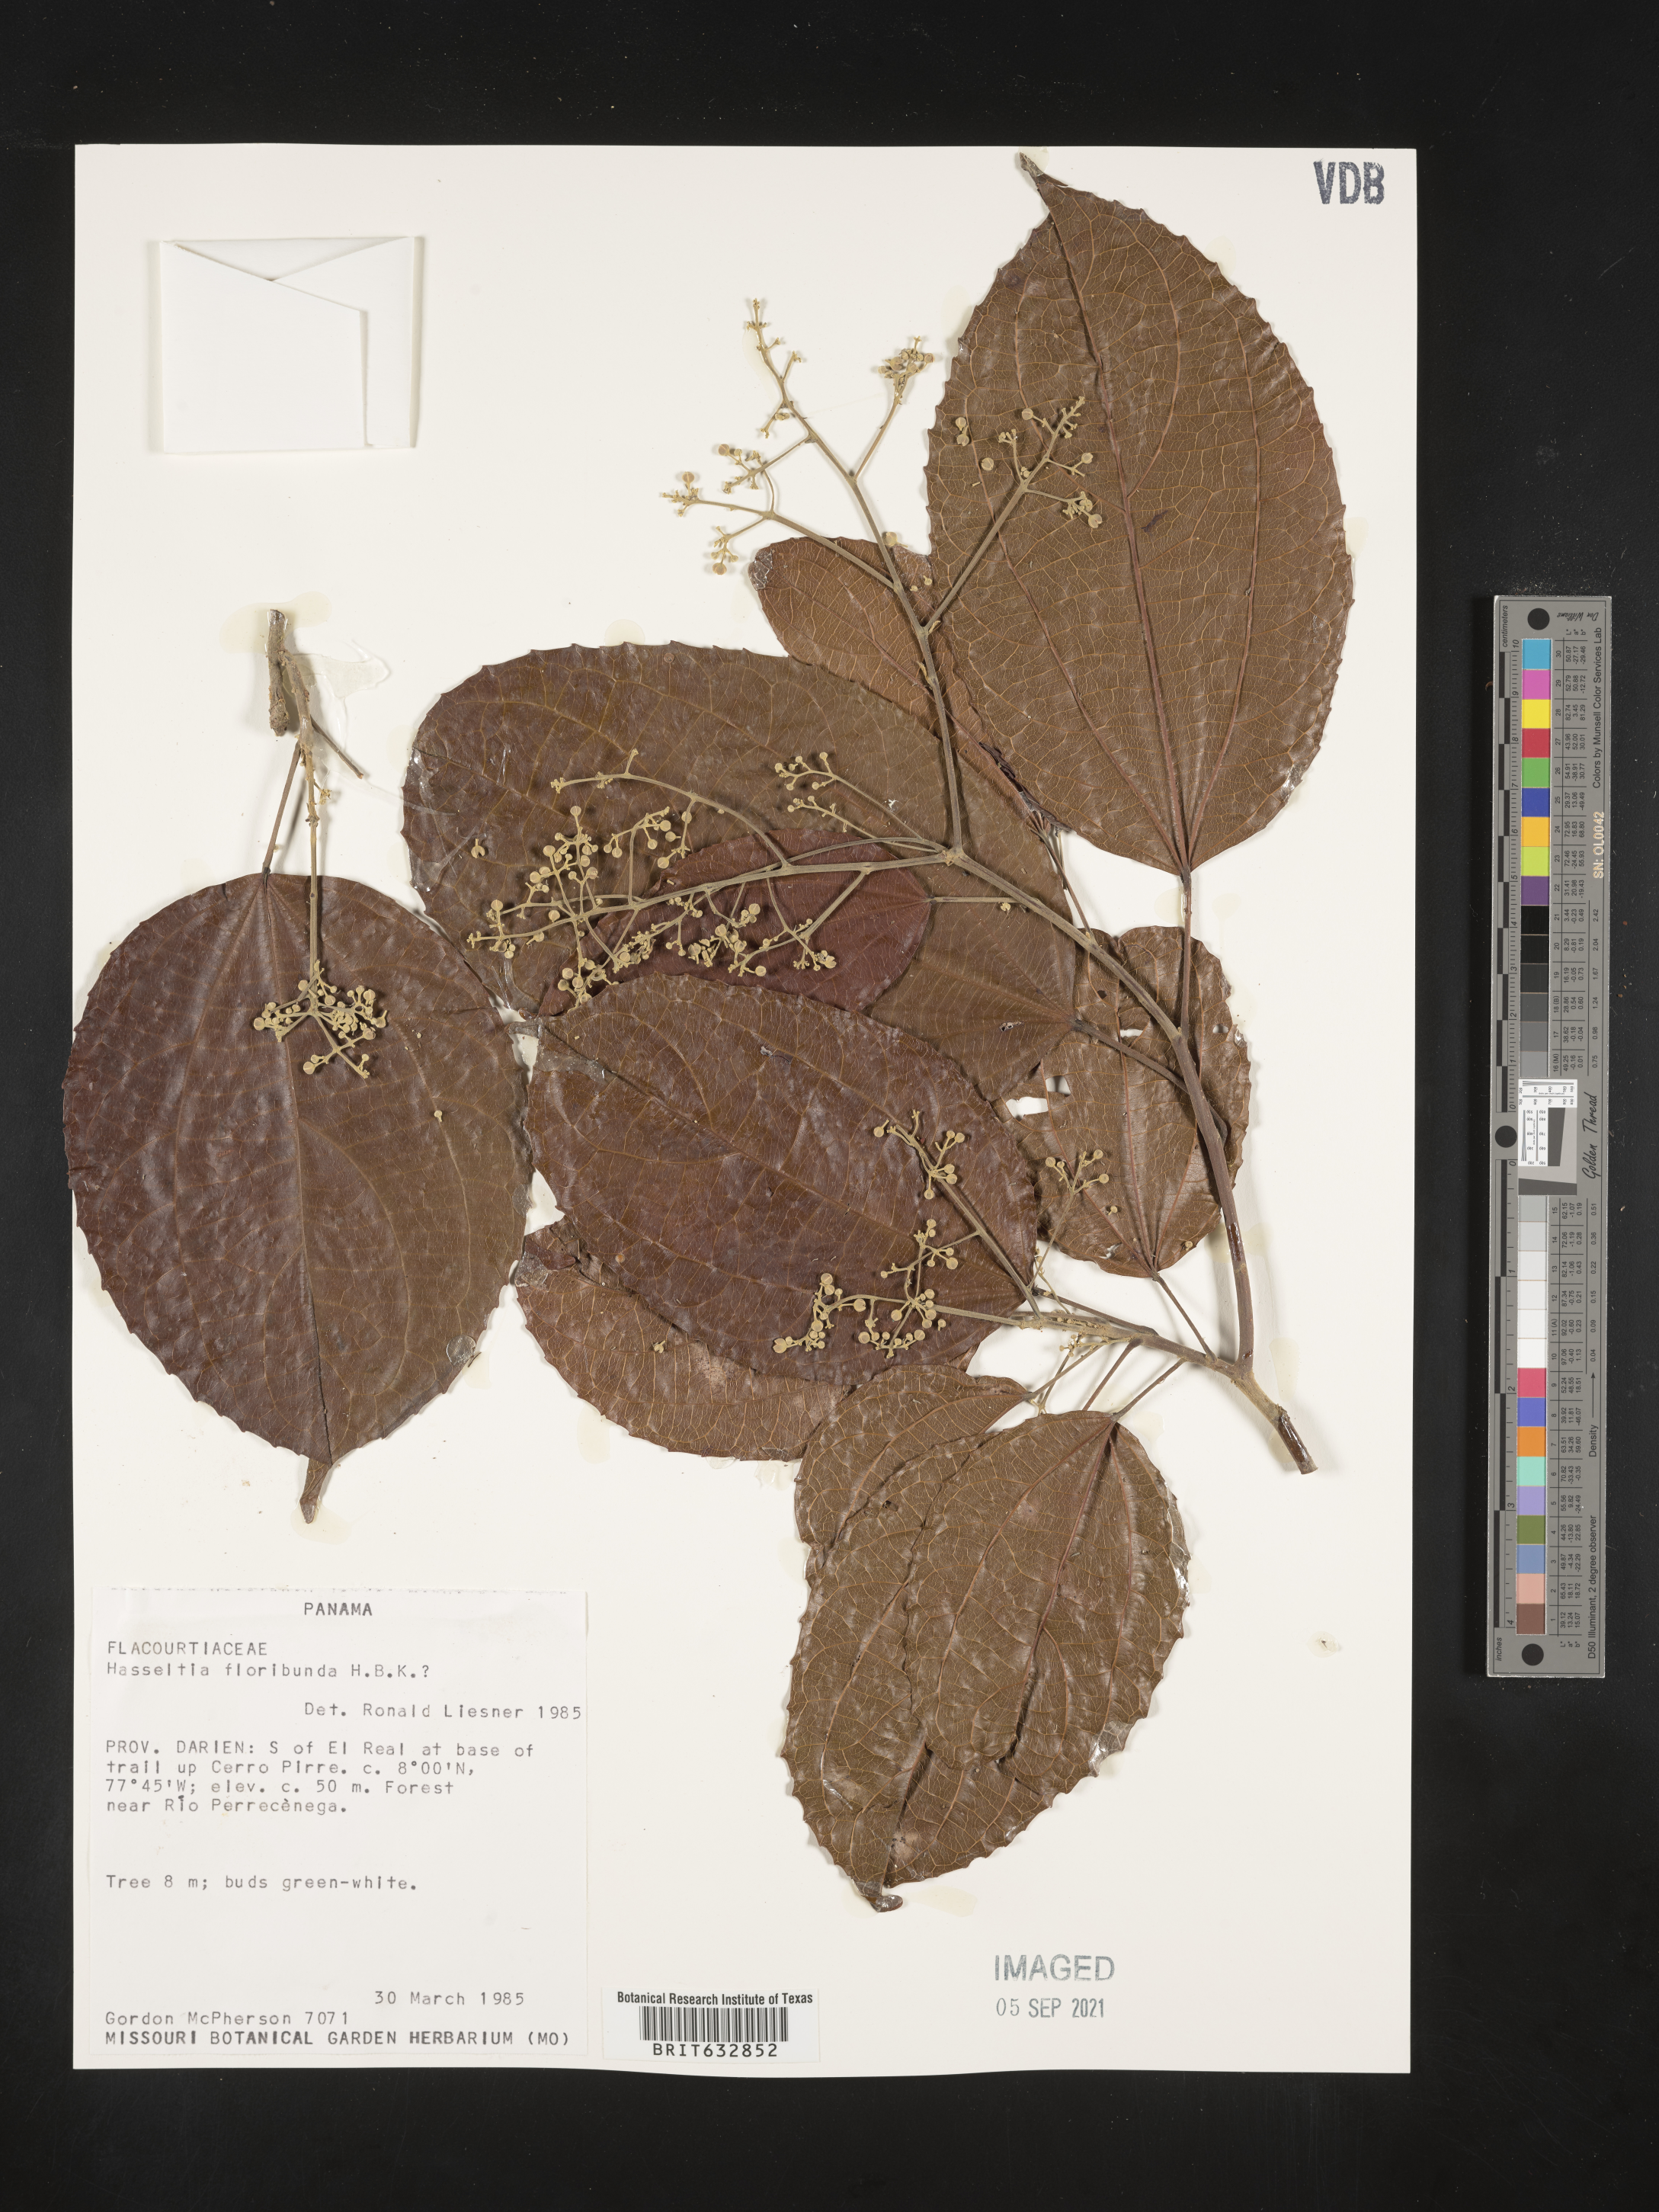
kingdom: Plantae
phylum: Tracheophyta
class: Magnoliopsida
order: Malpighiales
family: Salicaceae
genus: Hasseltia
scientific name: Hasseltia
